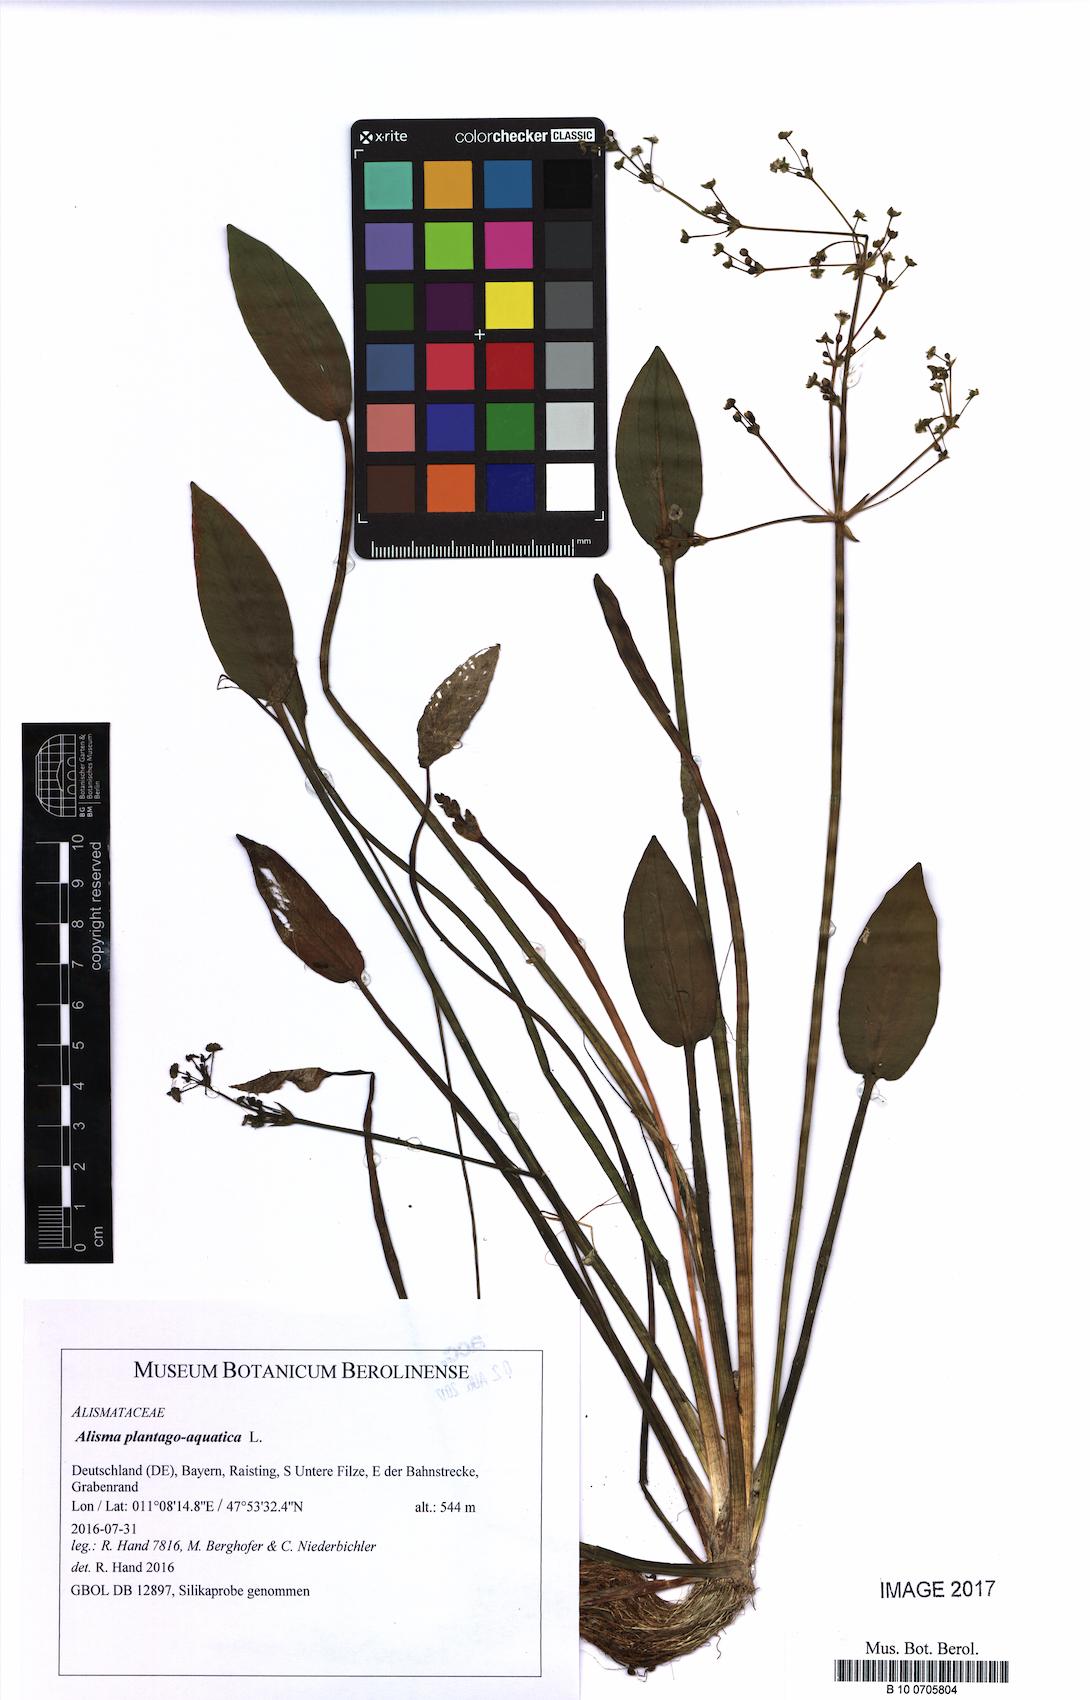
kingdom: Plantae
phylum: Tracheophyta
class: Liliopsida
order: Alismatales
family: Alismataceae
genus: Alisma
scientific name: Alisma plantago-aquatica
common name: Water-plantain
